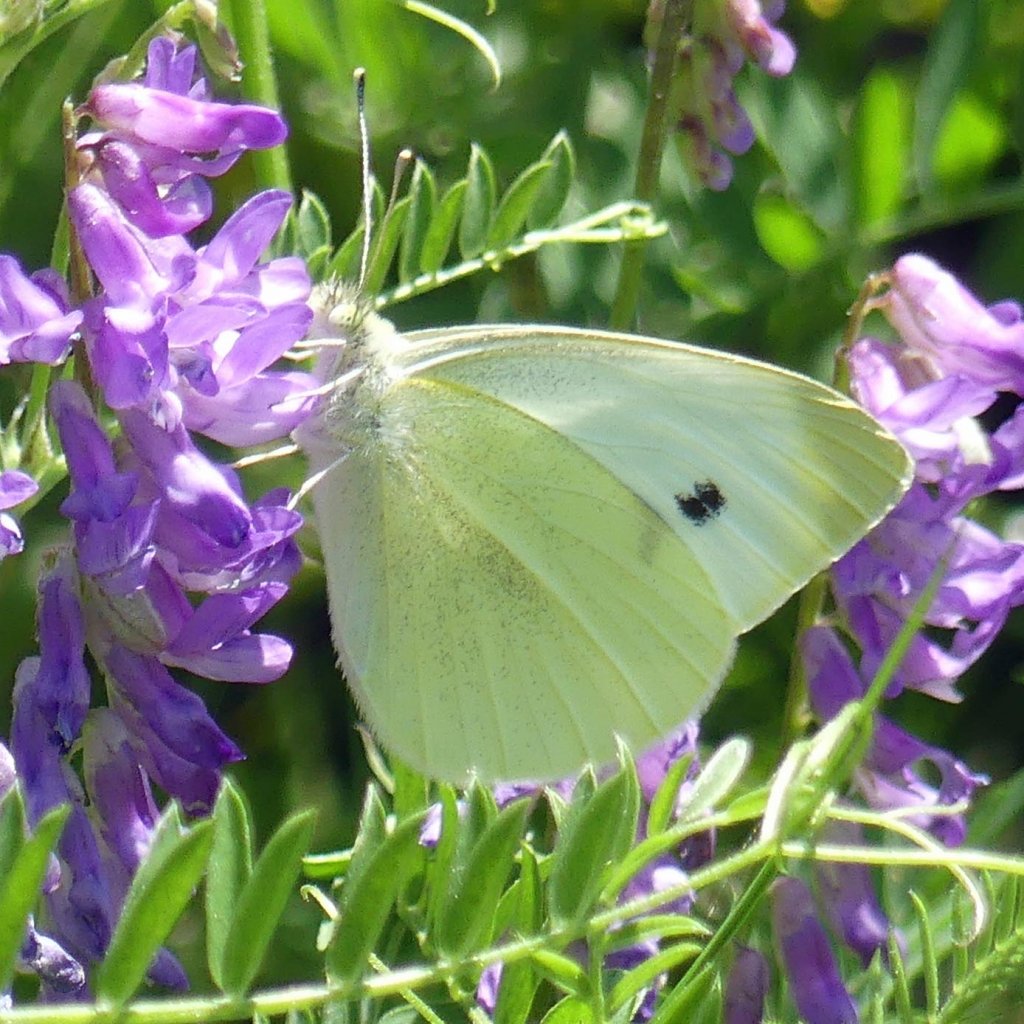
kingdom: Animalia
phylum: Arthropoda
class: Insecta
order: Lepidoptera
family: Pieridae
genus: Pieris
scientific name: Pieris rapae
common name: Cabbage White
